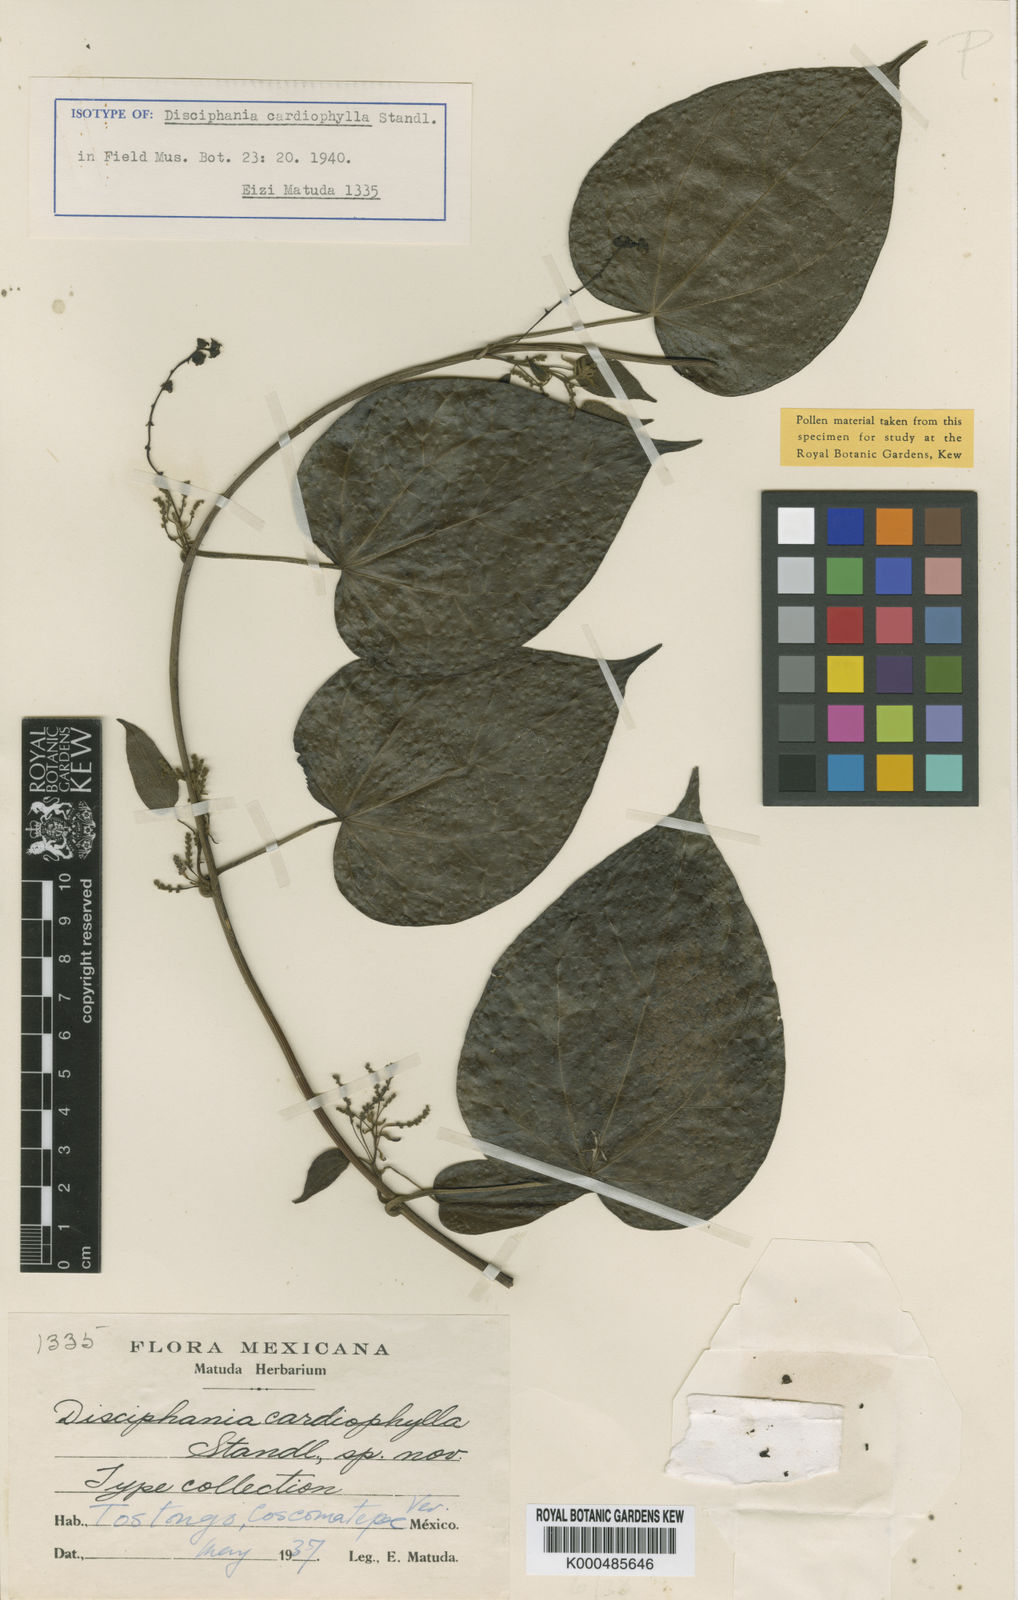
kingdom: Plantae
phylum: Tracheophyta
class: Magnoliopsida
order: Ranunculales
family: Menispermaceae
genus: Disciphania
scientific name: Disciphania cardiophylla
